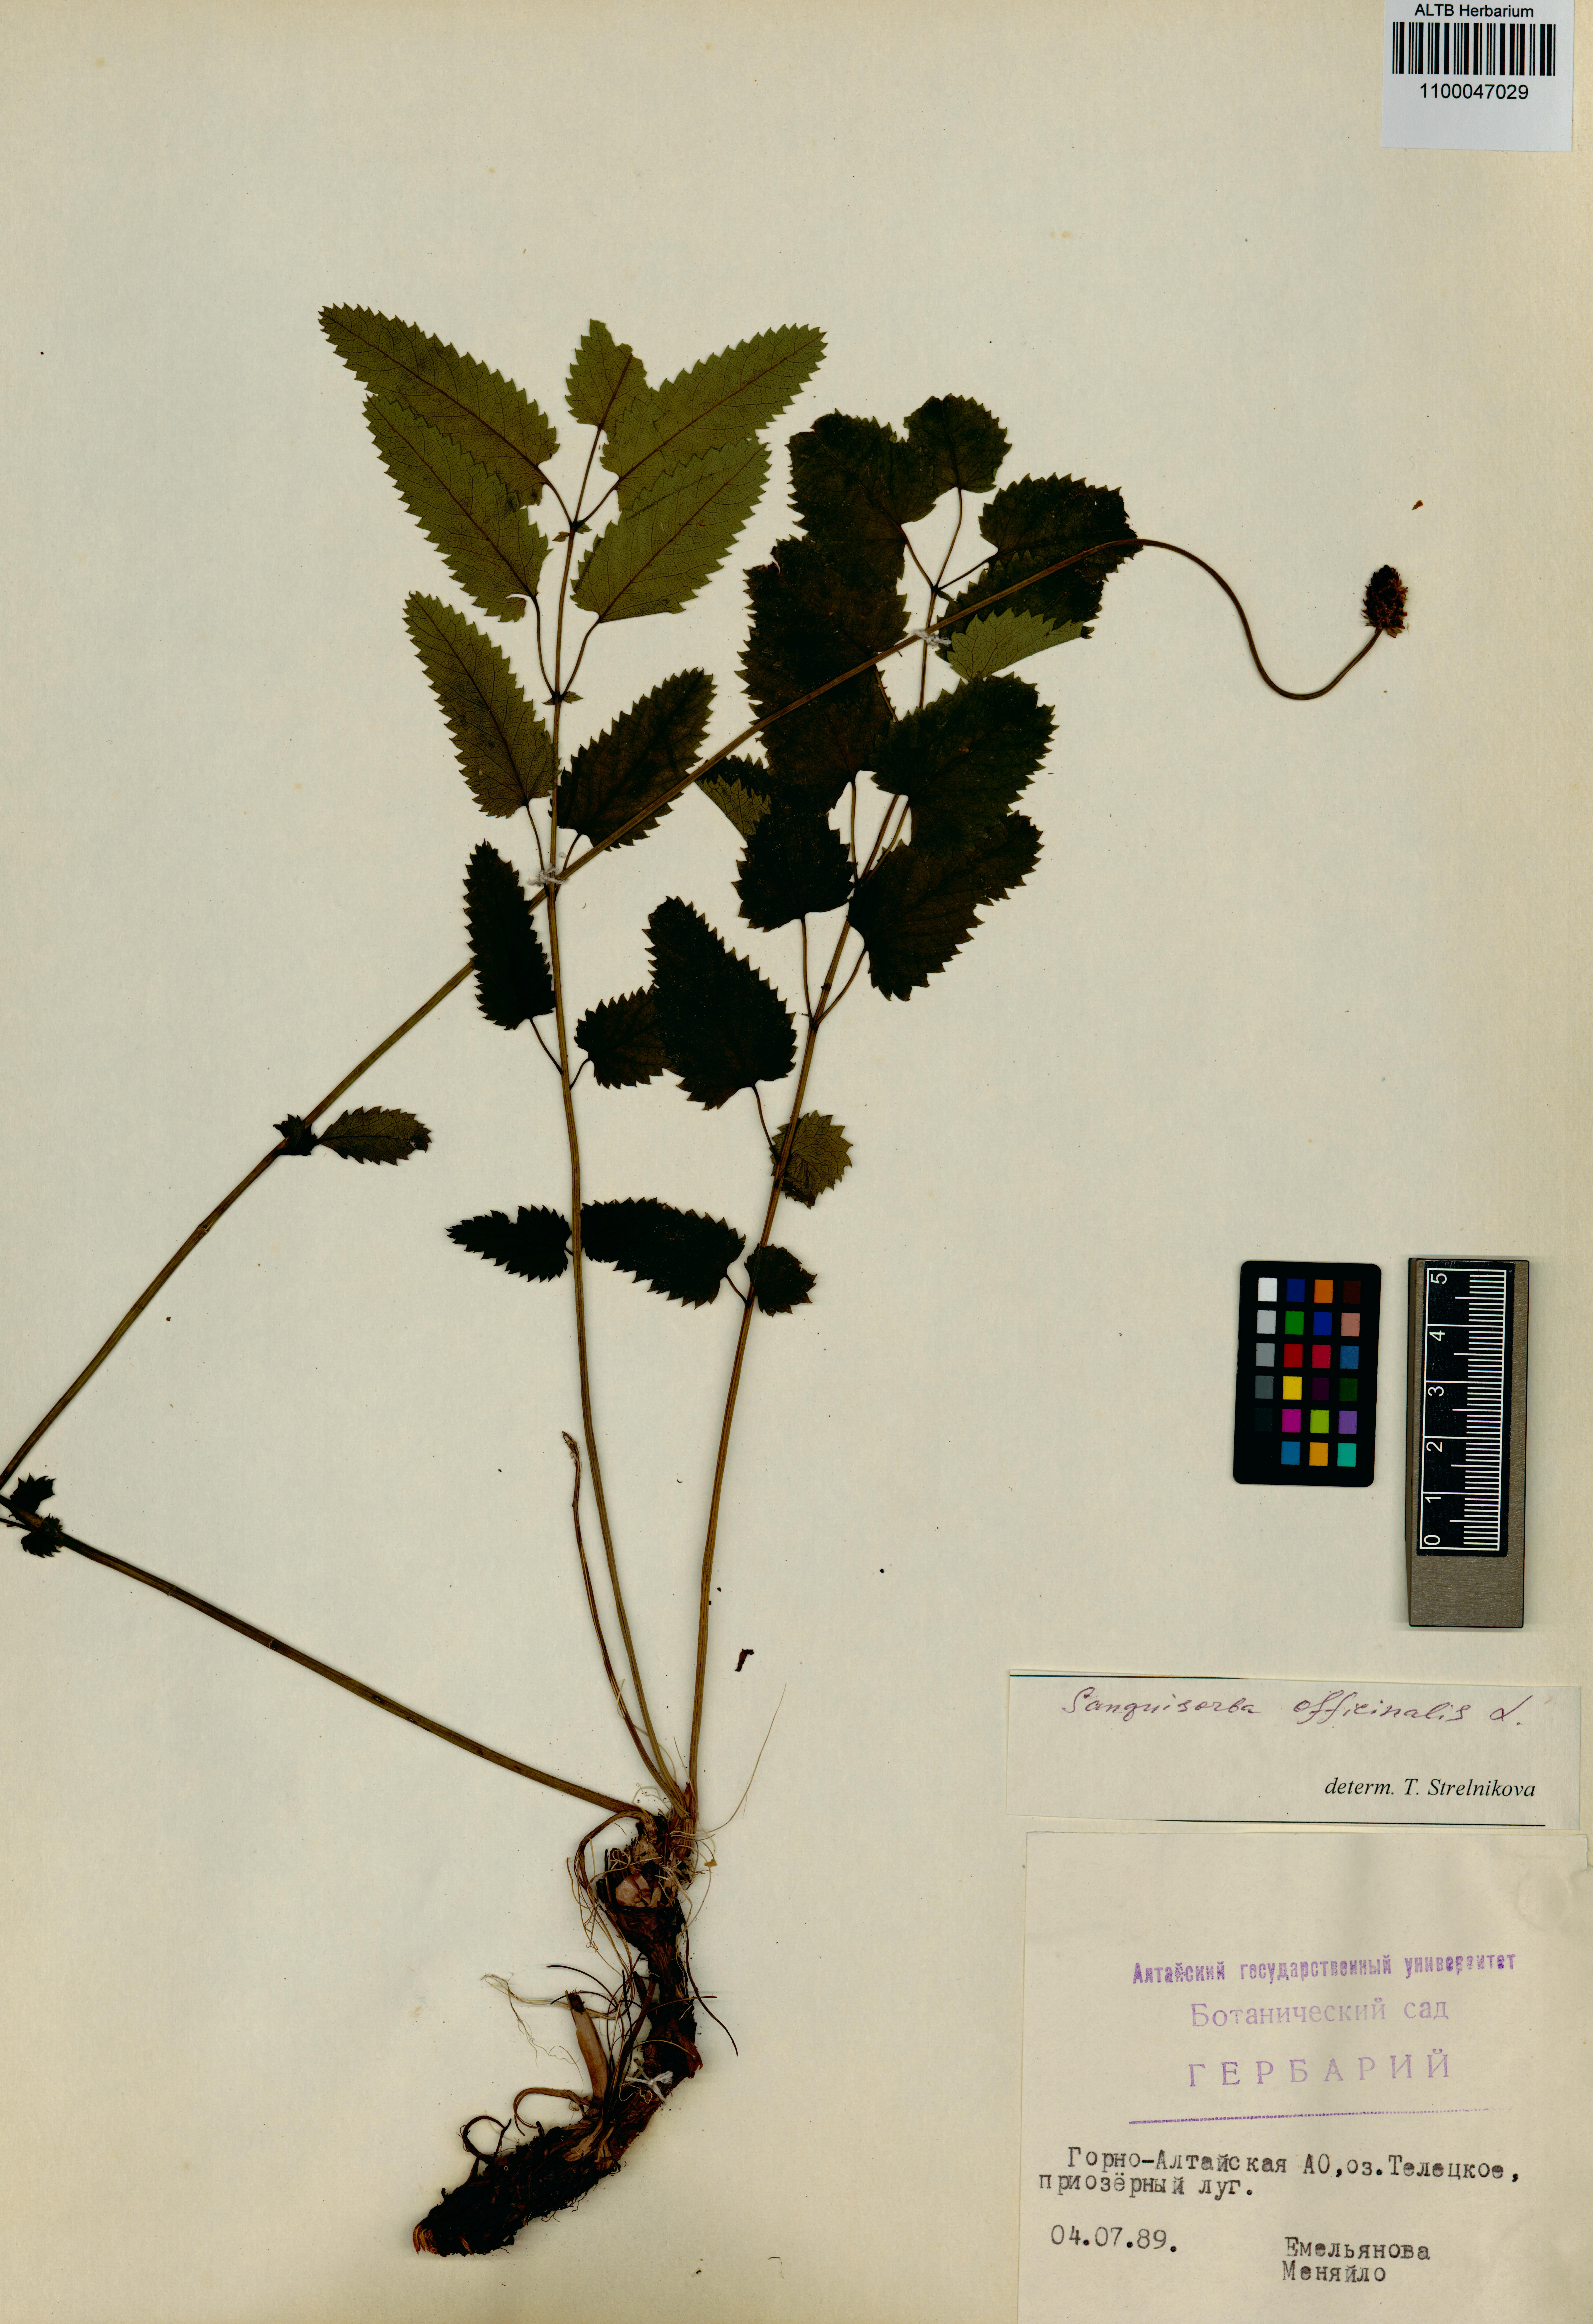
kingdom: Plantae
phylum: Tracheophyta
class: Magnoliopsida
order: Rosales
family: Rosaceae
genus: Sanguisorba
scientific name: Sanguisorba officinalis
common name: Great burnet
